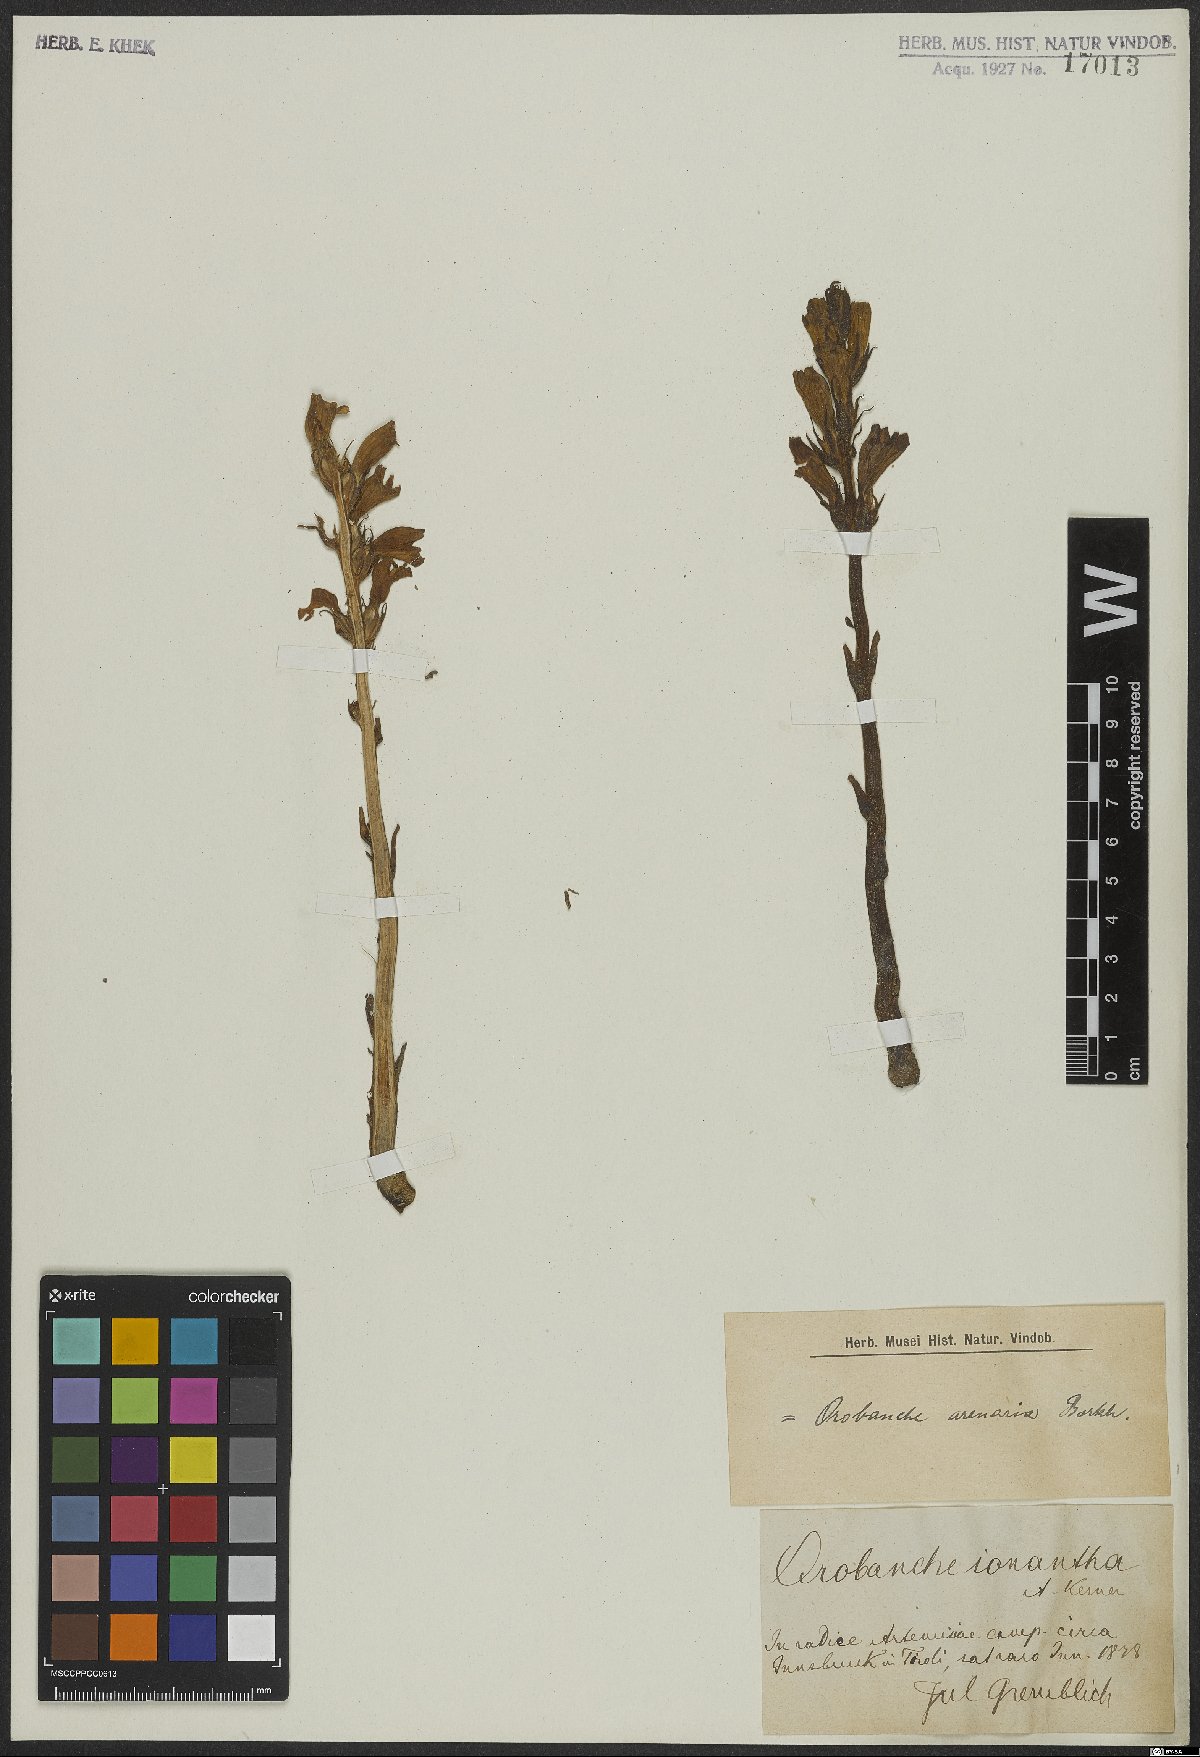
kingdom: Plantae
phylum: Tracheophyta
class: Magnoliopsida
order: Lamiales
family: Orobanchaceae
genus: Phelipanche
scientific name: Phelipanche arenaria
